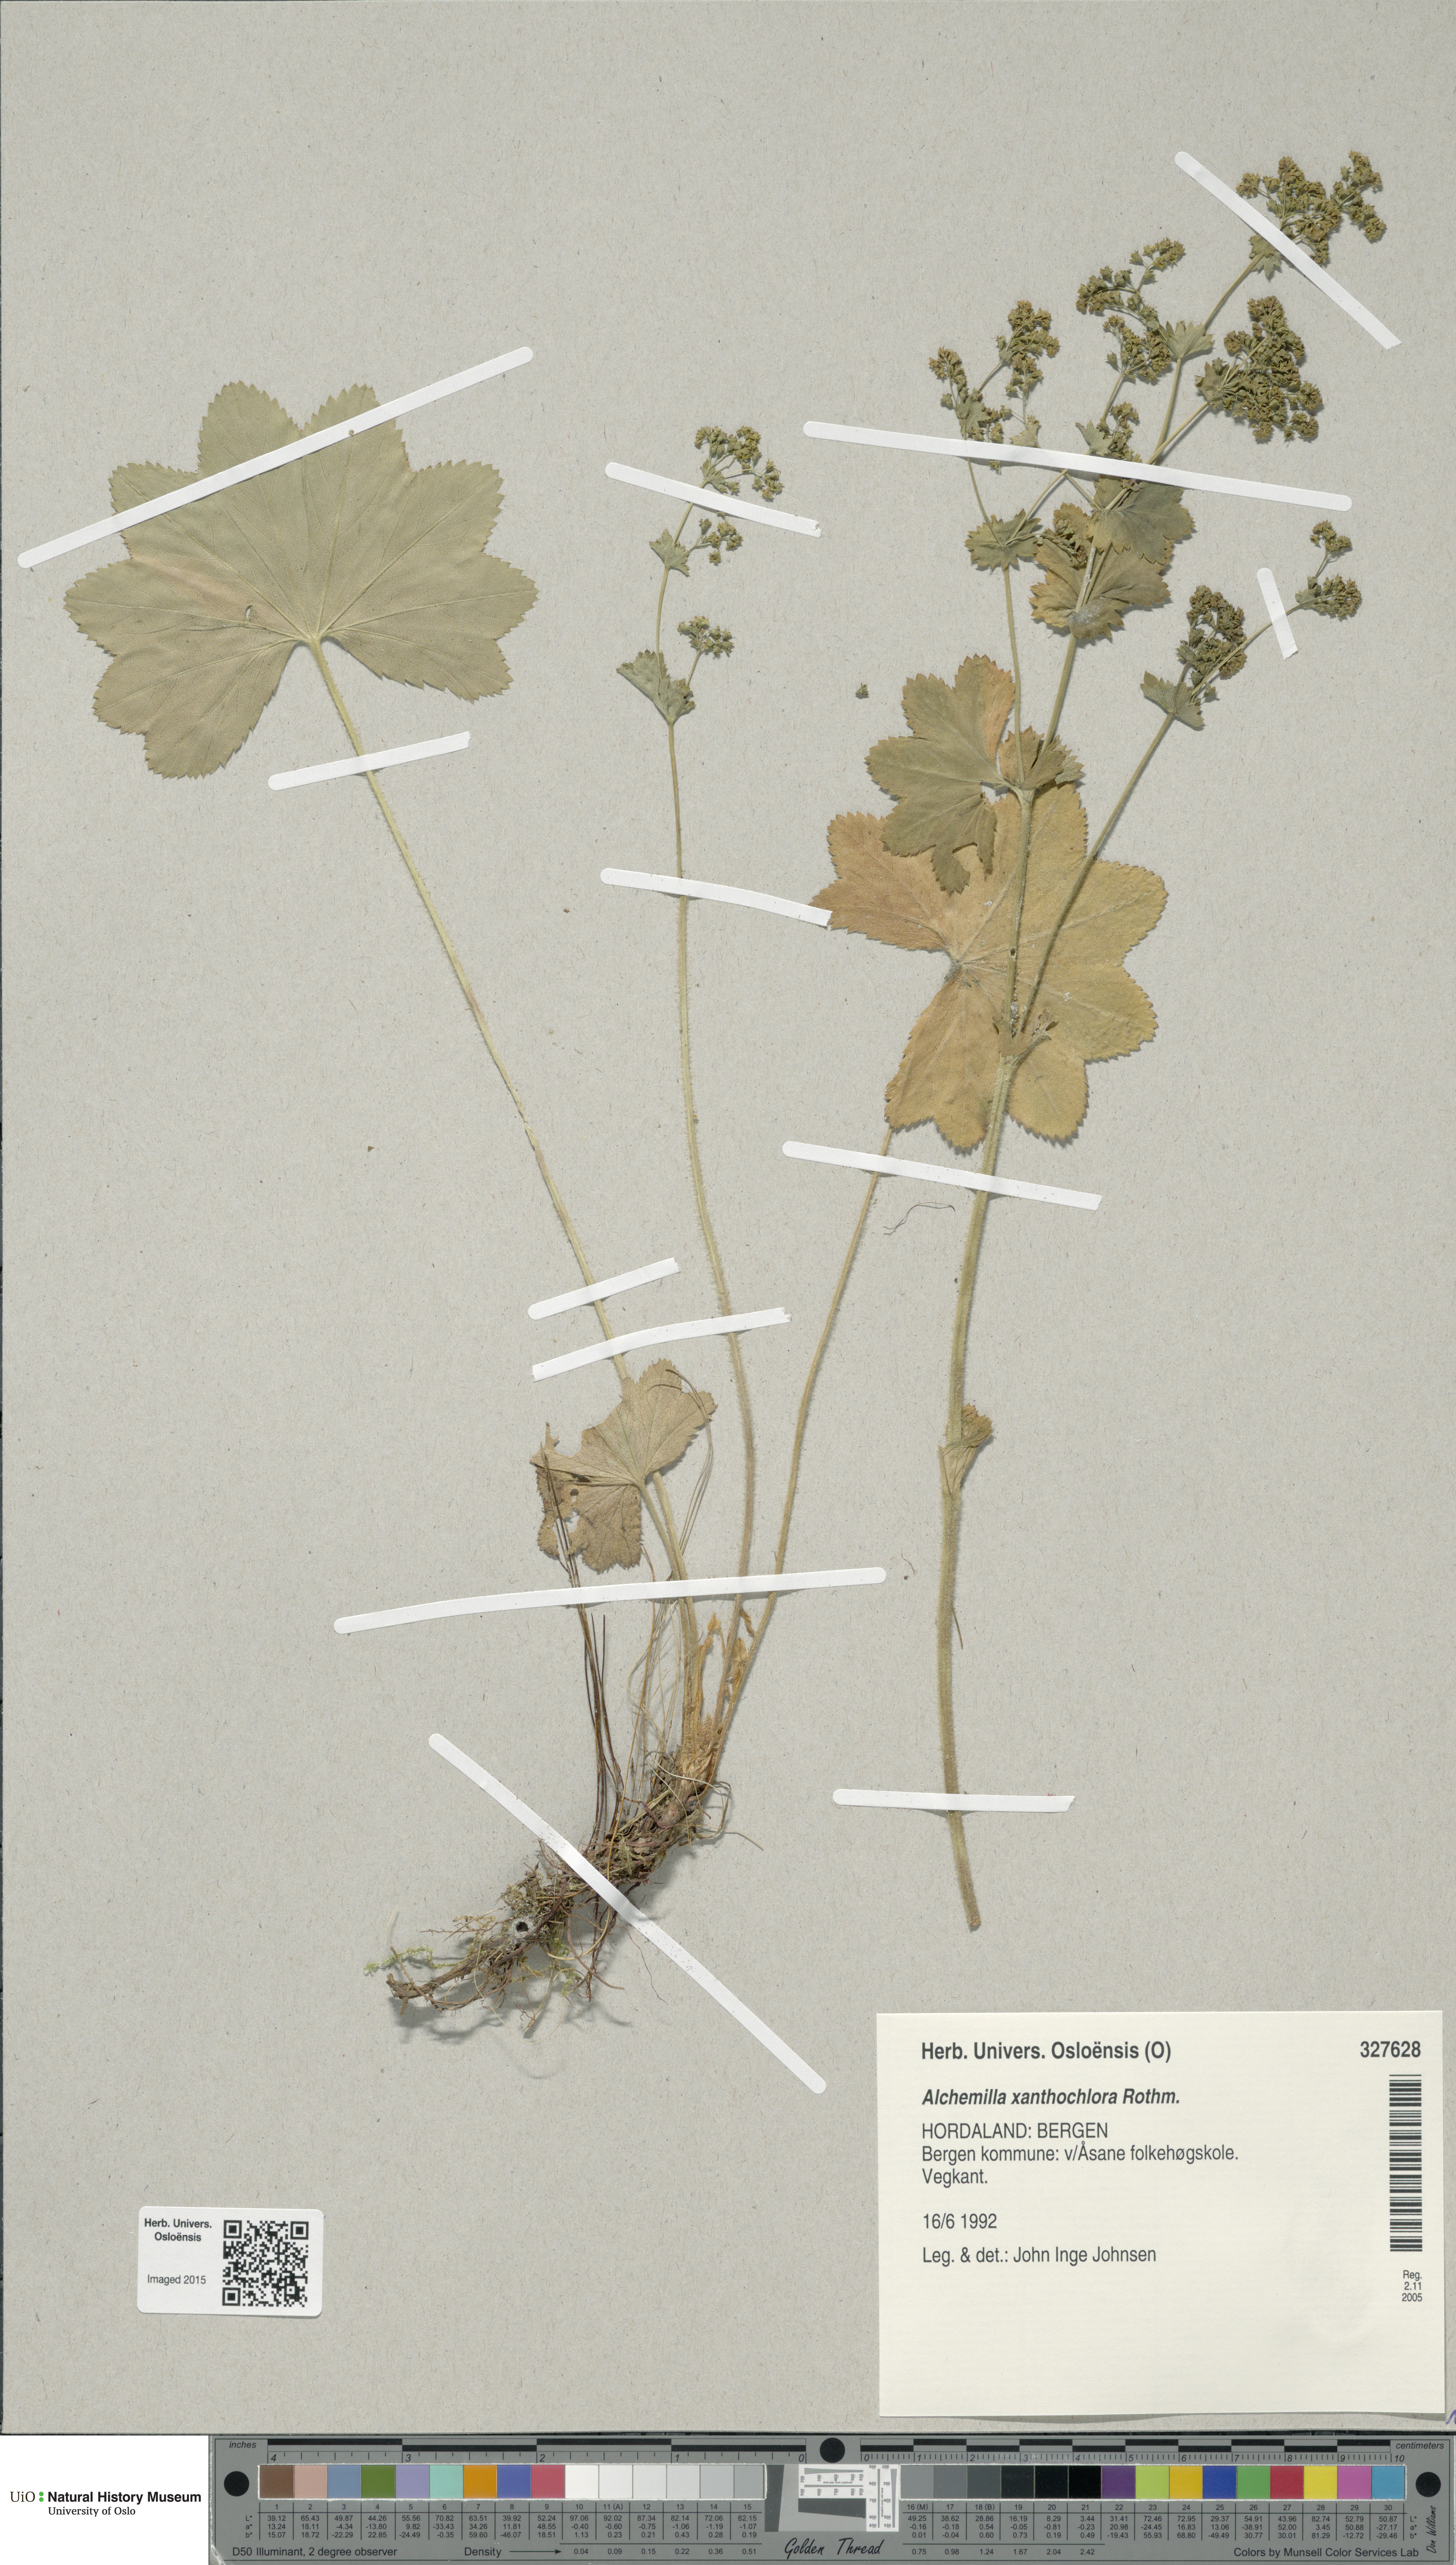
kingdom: Plantae
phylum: Tracheophyta
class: Magnoliopsida
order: Rosales
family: Rosaceae
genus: Alchemilla
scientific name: Alchemilla xanthochlora
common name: Intermediate lady's-mantle
